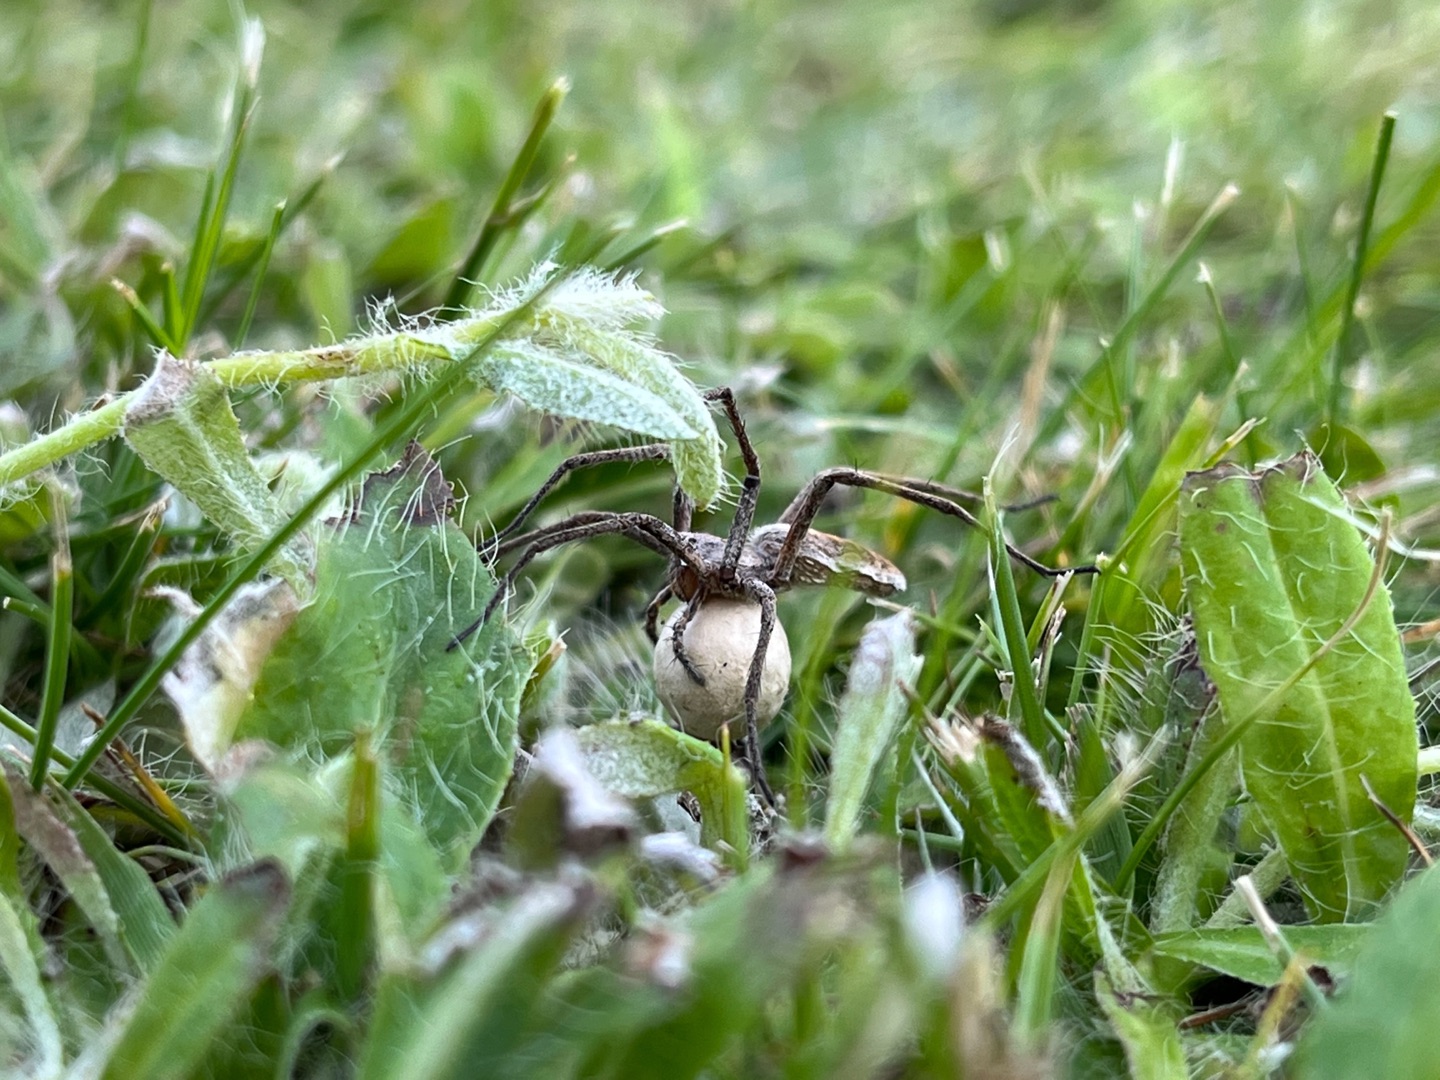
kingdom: Animalia
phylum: Arthropoda
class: Arachnida
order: Araneae
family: Pisauridae
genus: Pisaura
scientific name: Pisaura mirabilis
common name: Almindelig rovedderkop
